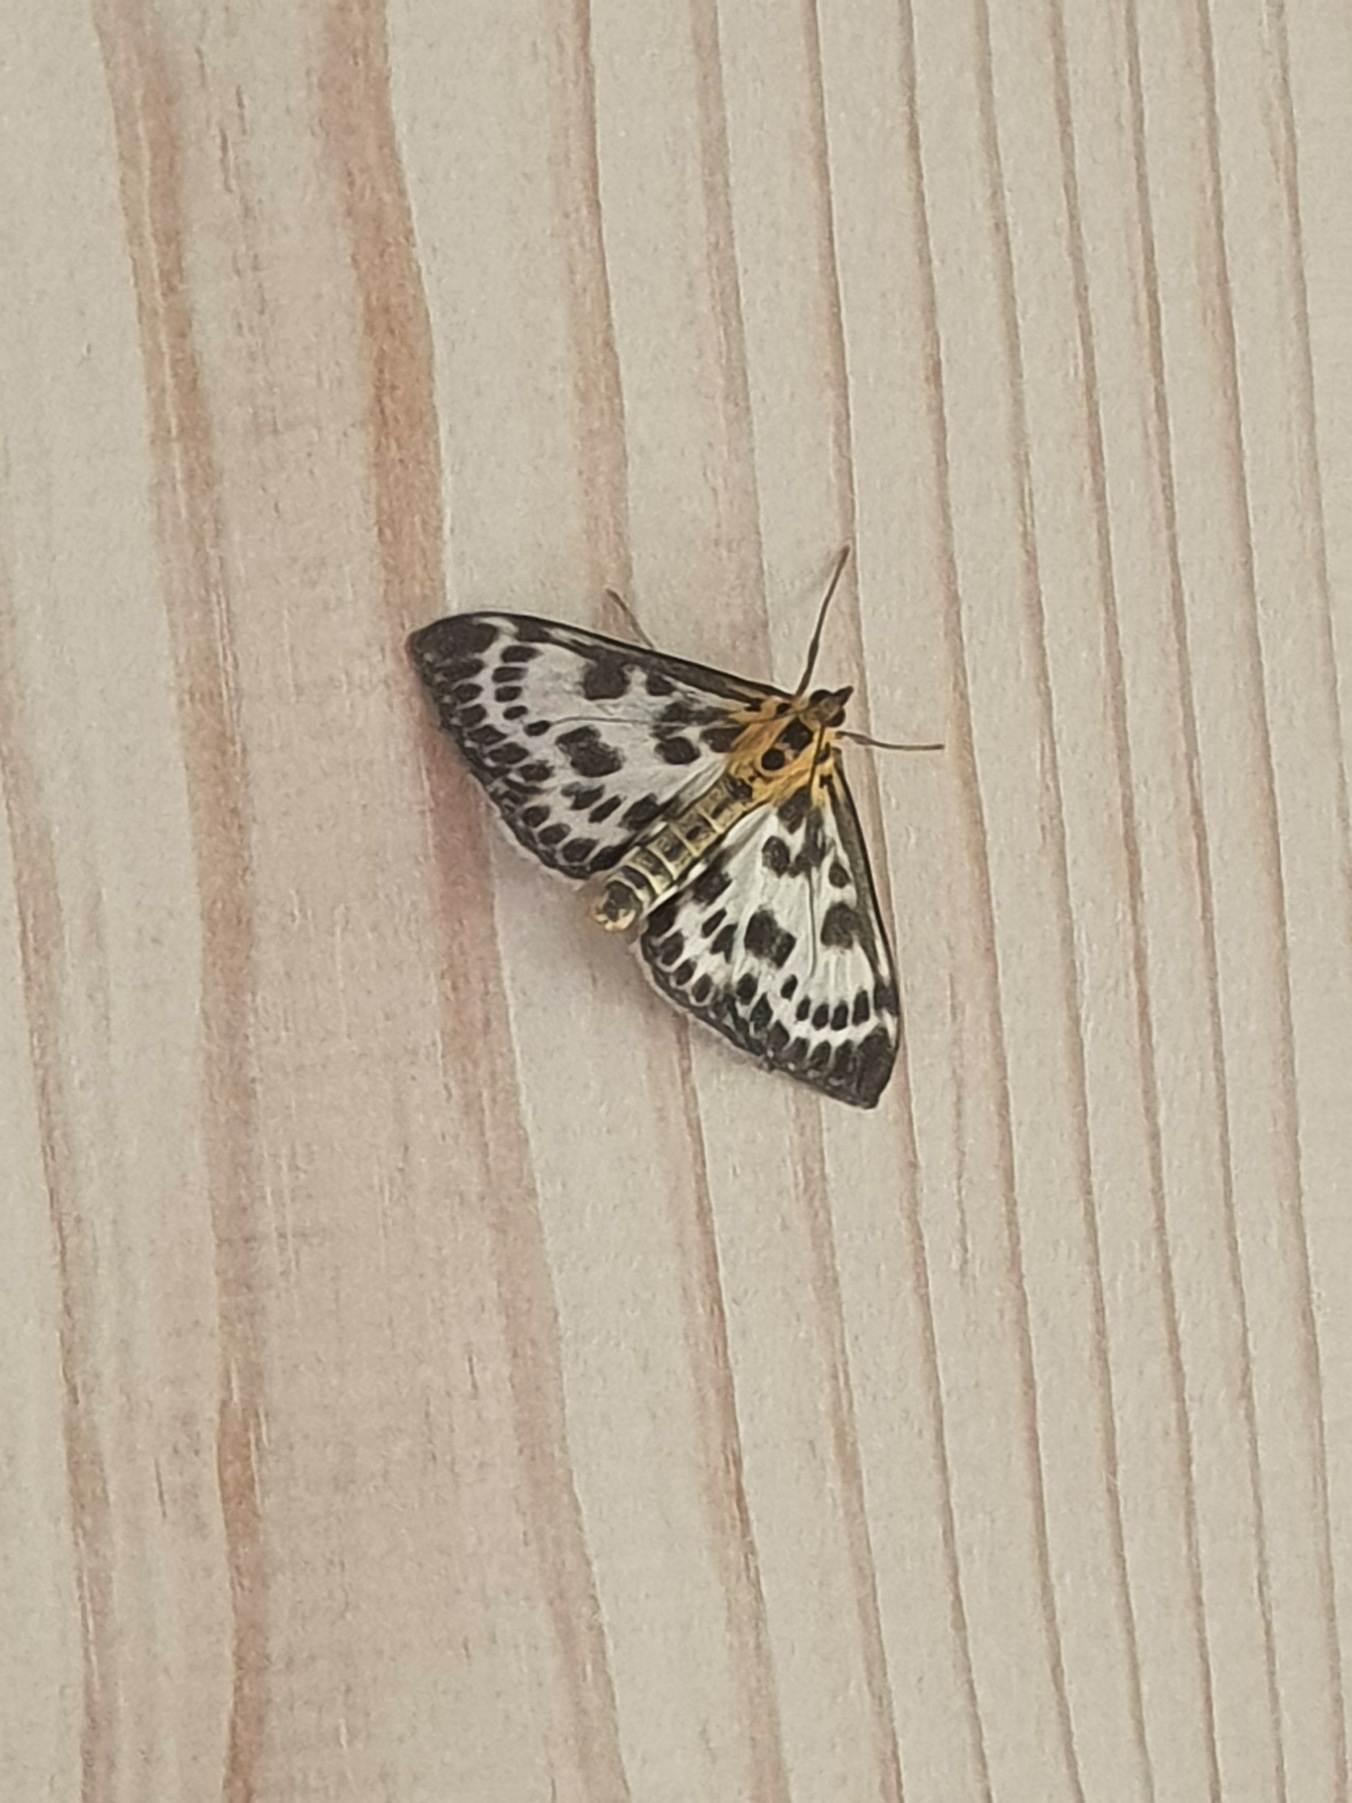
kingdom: Animalia
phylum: Arthropoda
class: Insecta
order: Lepidoptera
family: Crambidae
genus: Anania
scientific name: Anania hortulata
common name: Nældehalvmøl
